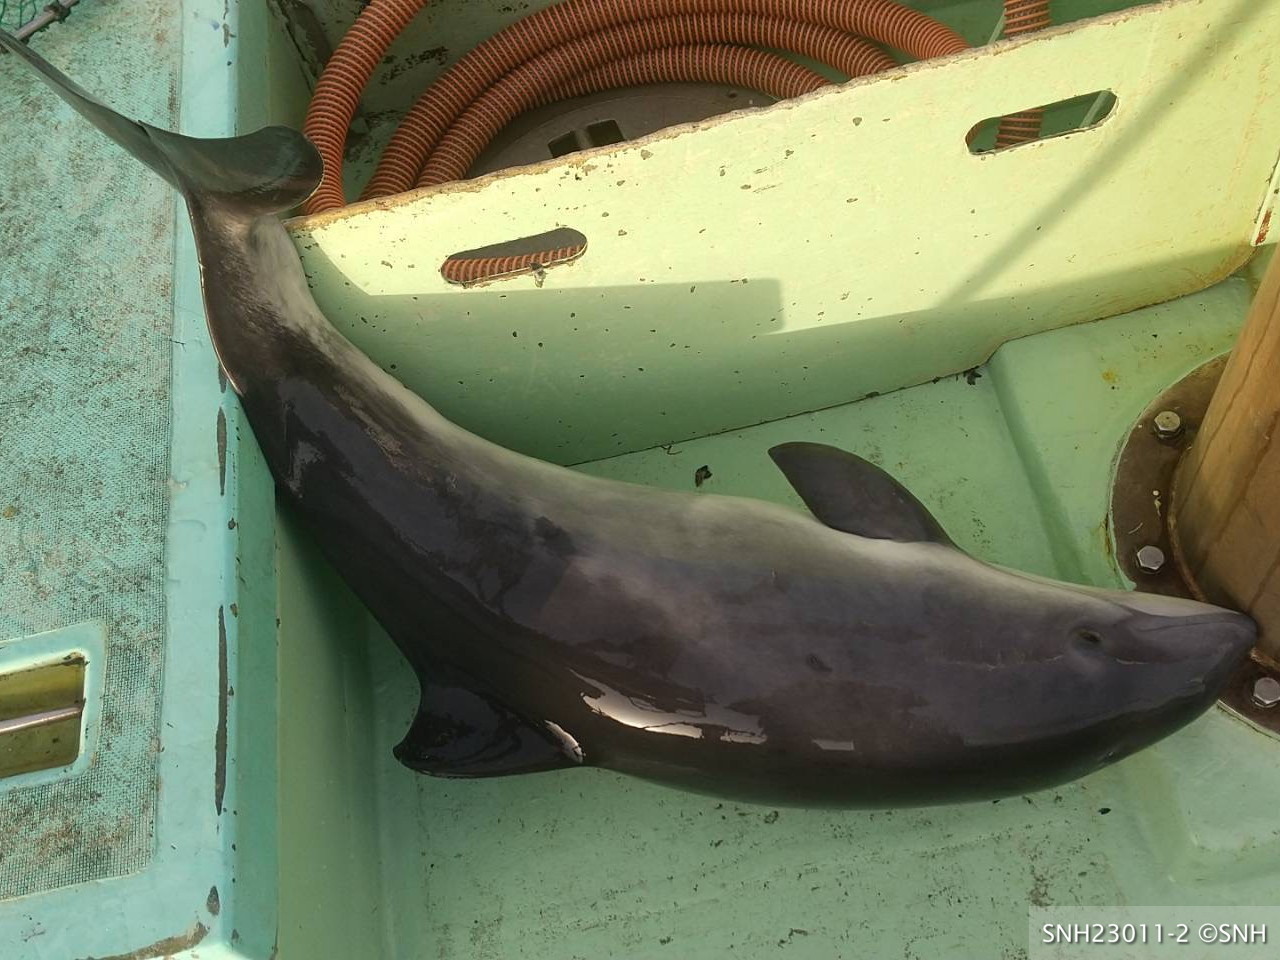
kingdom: Animalia
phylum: Chordata
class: Mammalia
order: Cetacea
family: Phocoenidae
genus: Phocoena
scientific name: Phocoena phocoena
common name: Harbour porpoise
